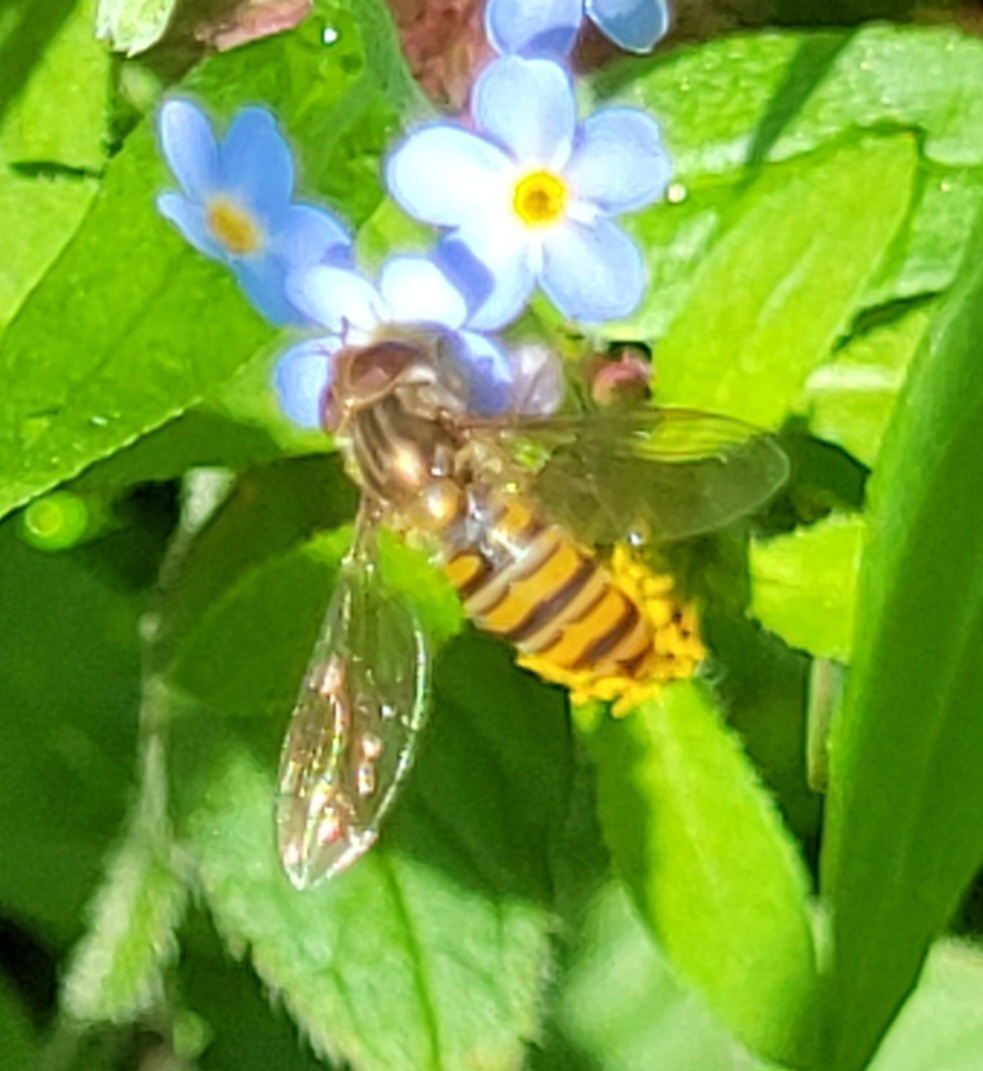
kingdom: Animalia
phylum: Arthropoda
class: Insecta
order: Diptera
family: Syrphidae
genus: Episyrphus
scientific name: Episyrphus balteatus
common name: Dobbeltbåndet svirreflue
